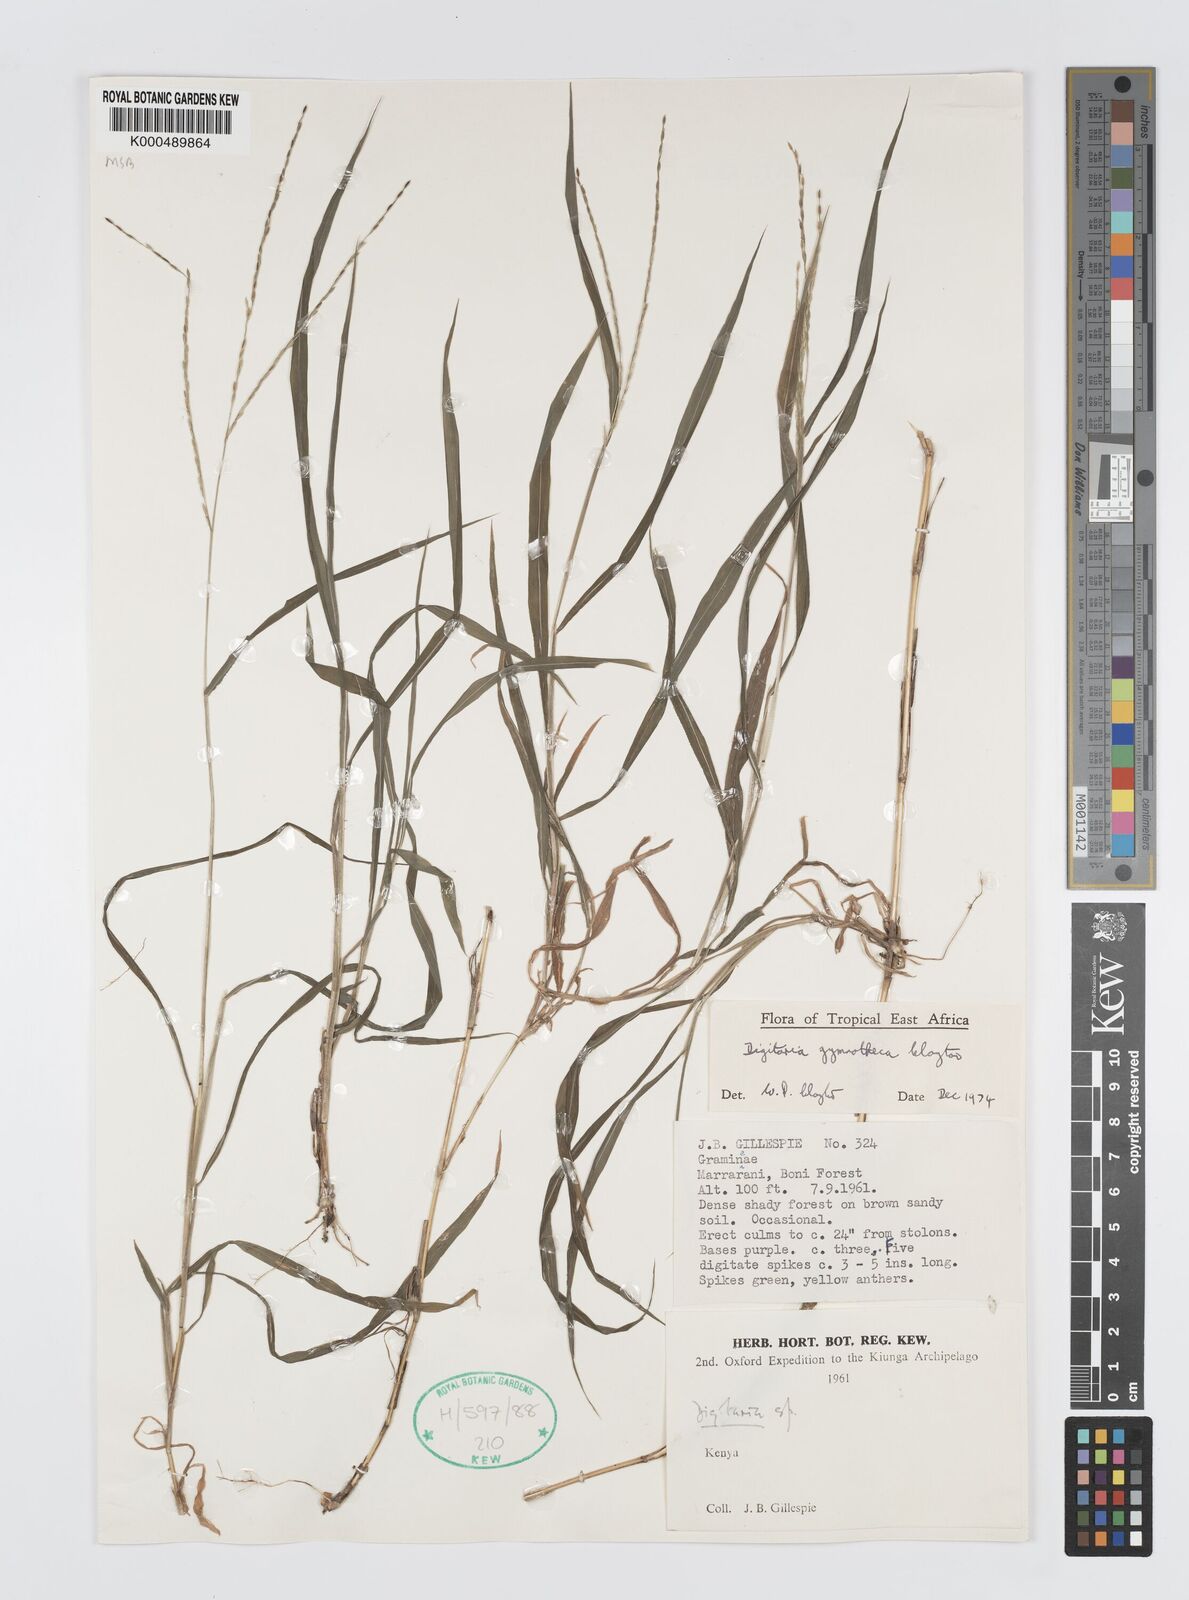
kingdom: Plantae
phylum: Tracheophyta
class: Liliopsida
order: Poales
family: Poaceae
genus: Digitaria
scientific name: Digitaria gymnotheca
